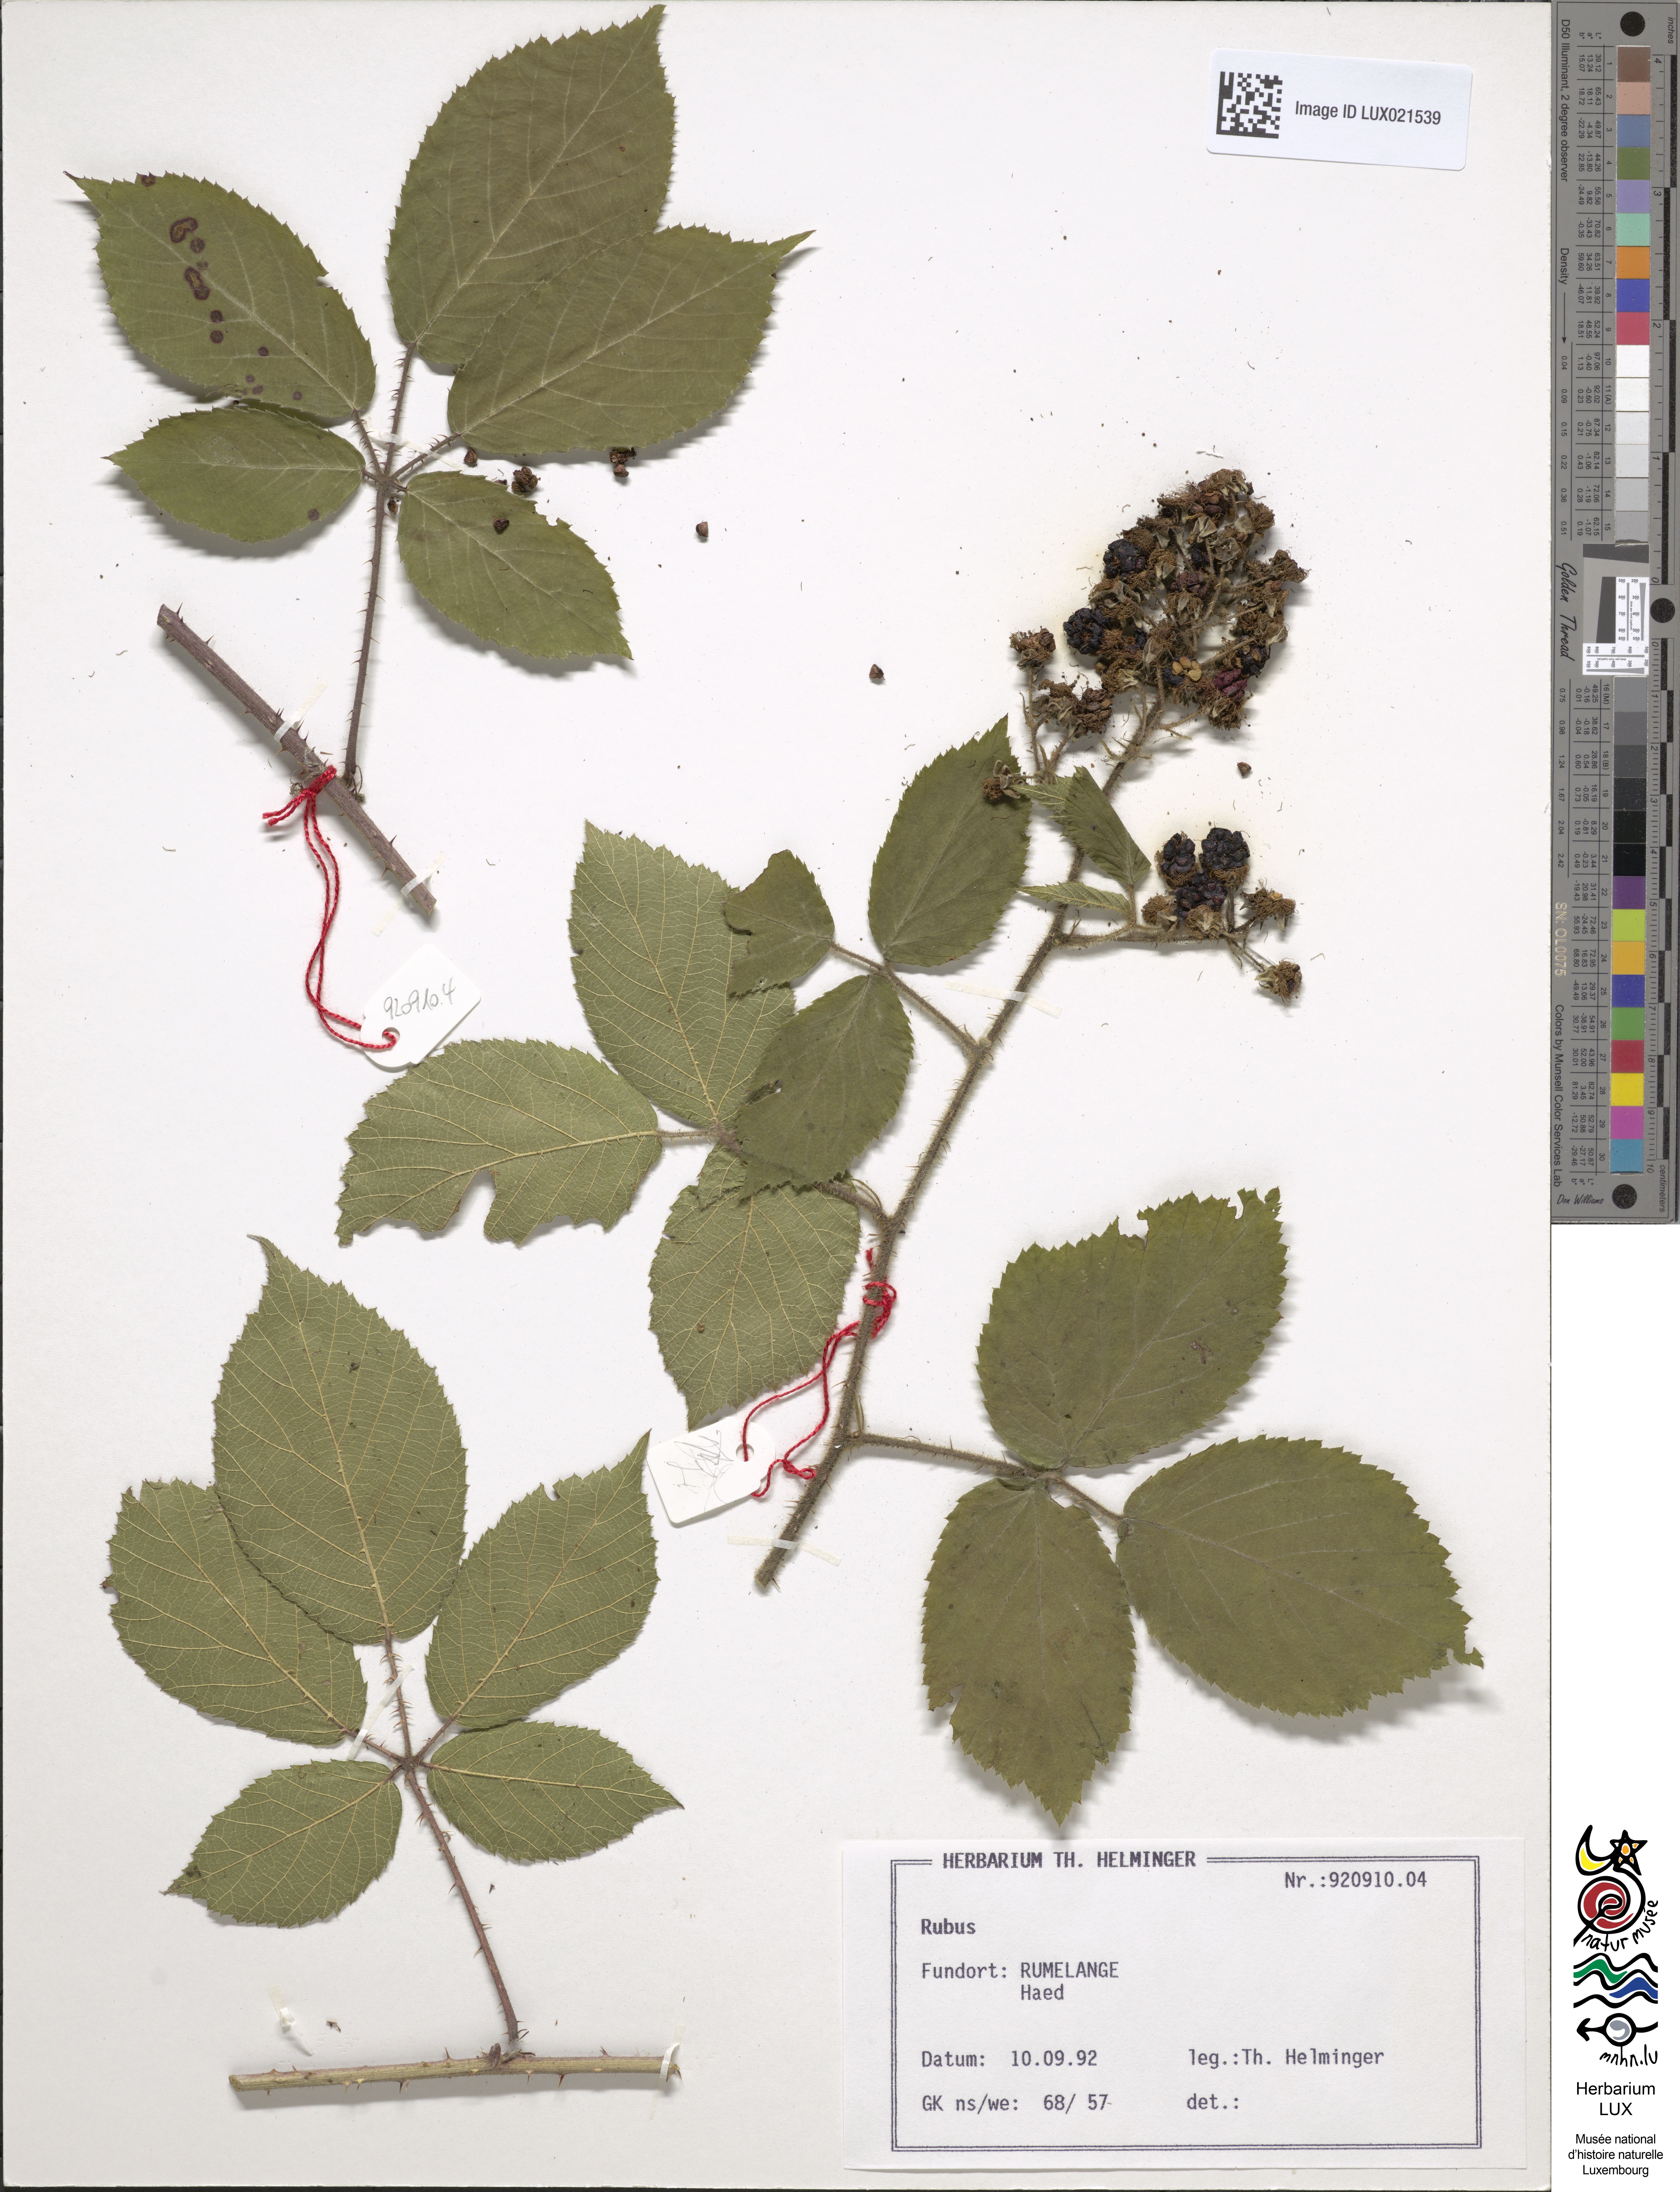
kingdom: Plantae
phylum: Tracheophyta
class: Magnoliopsida
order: Rosales
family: Rosaceae
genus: Rubus
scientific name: Rubus
